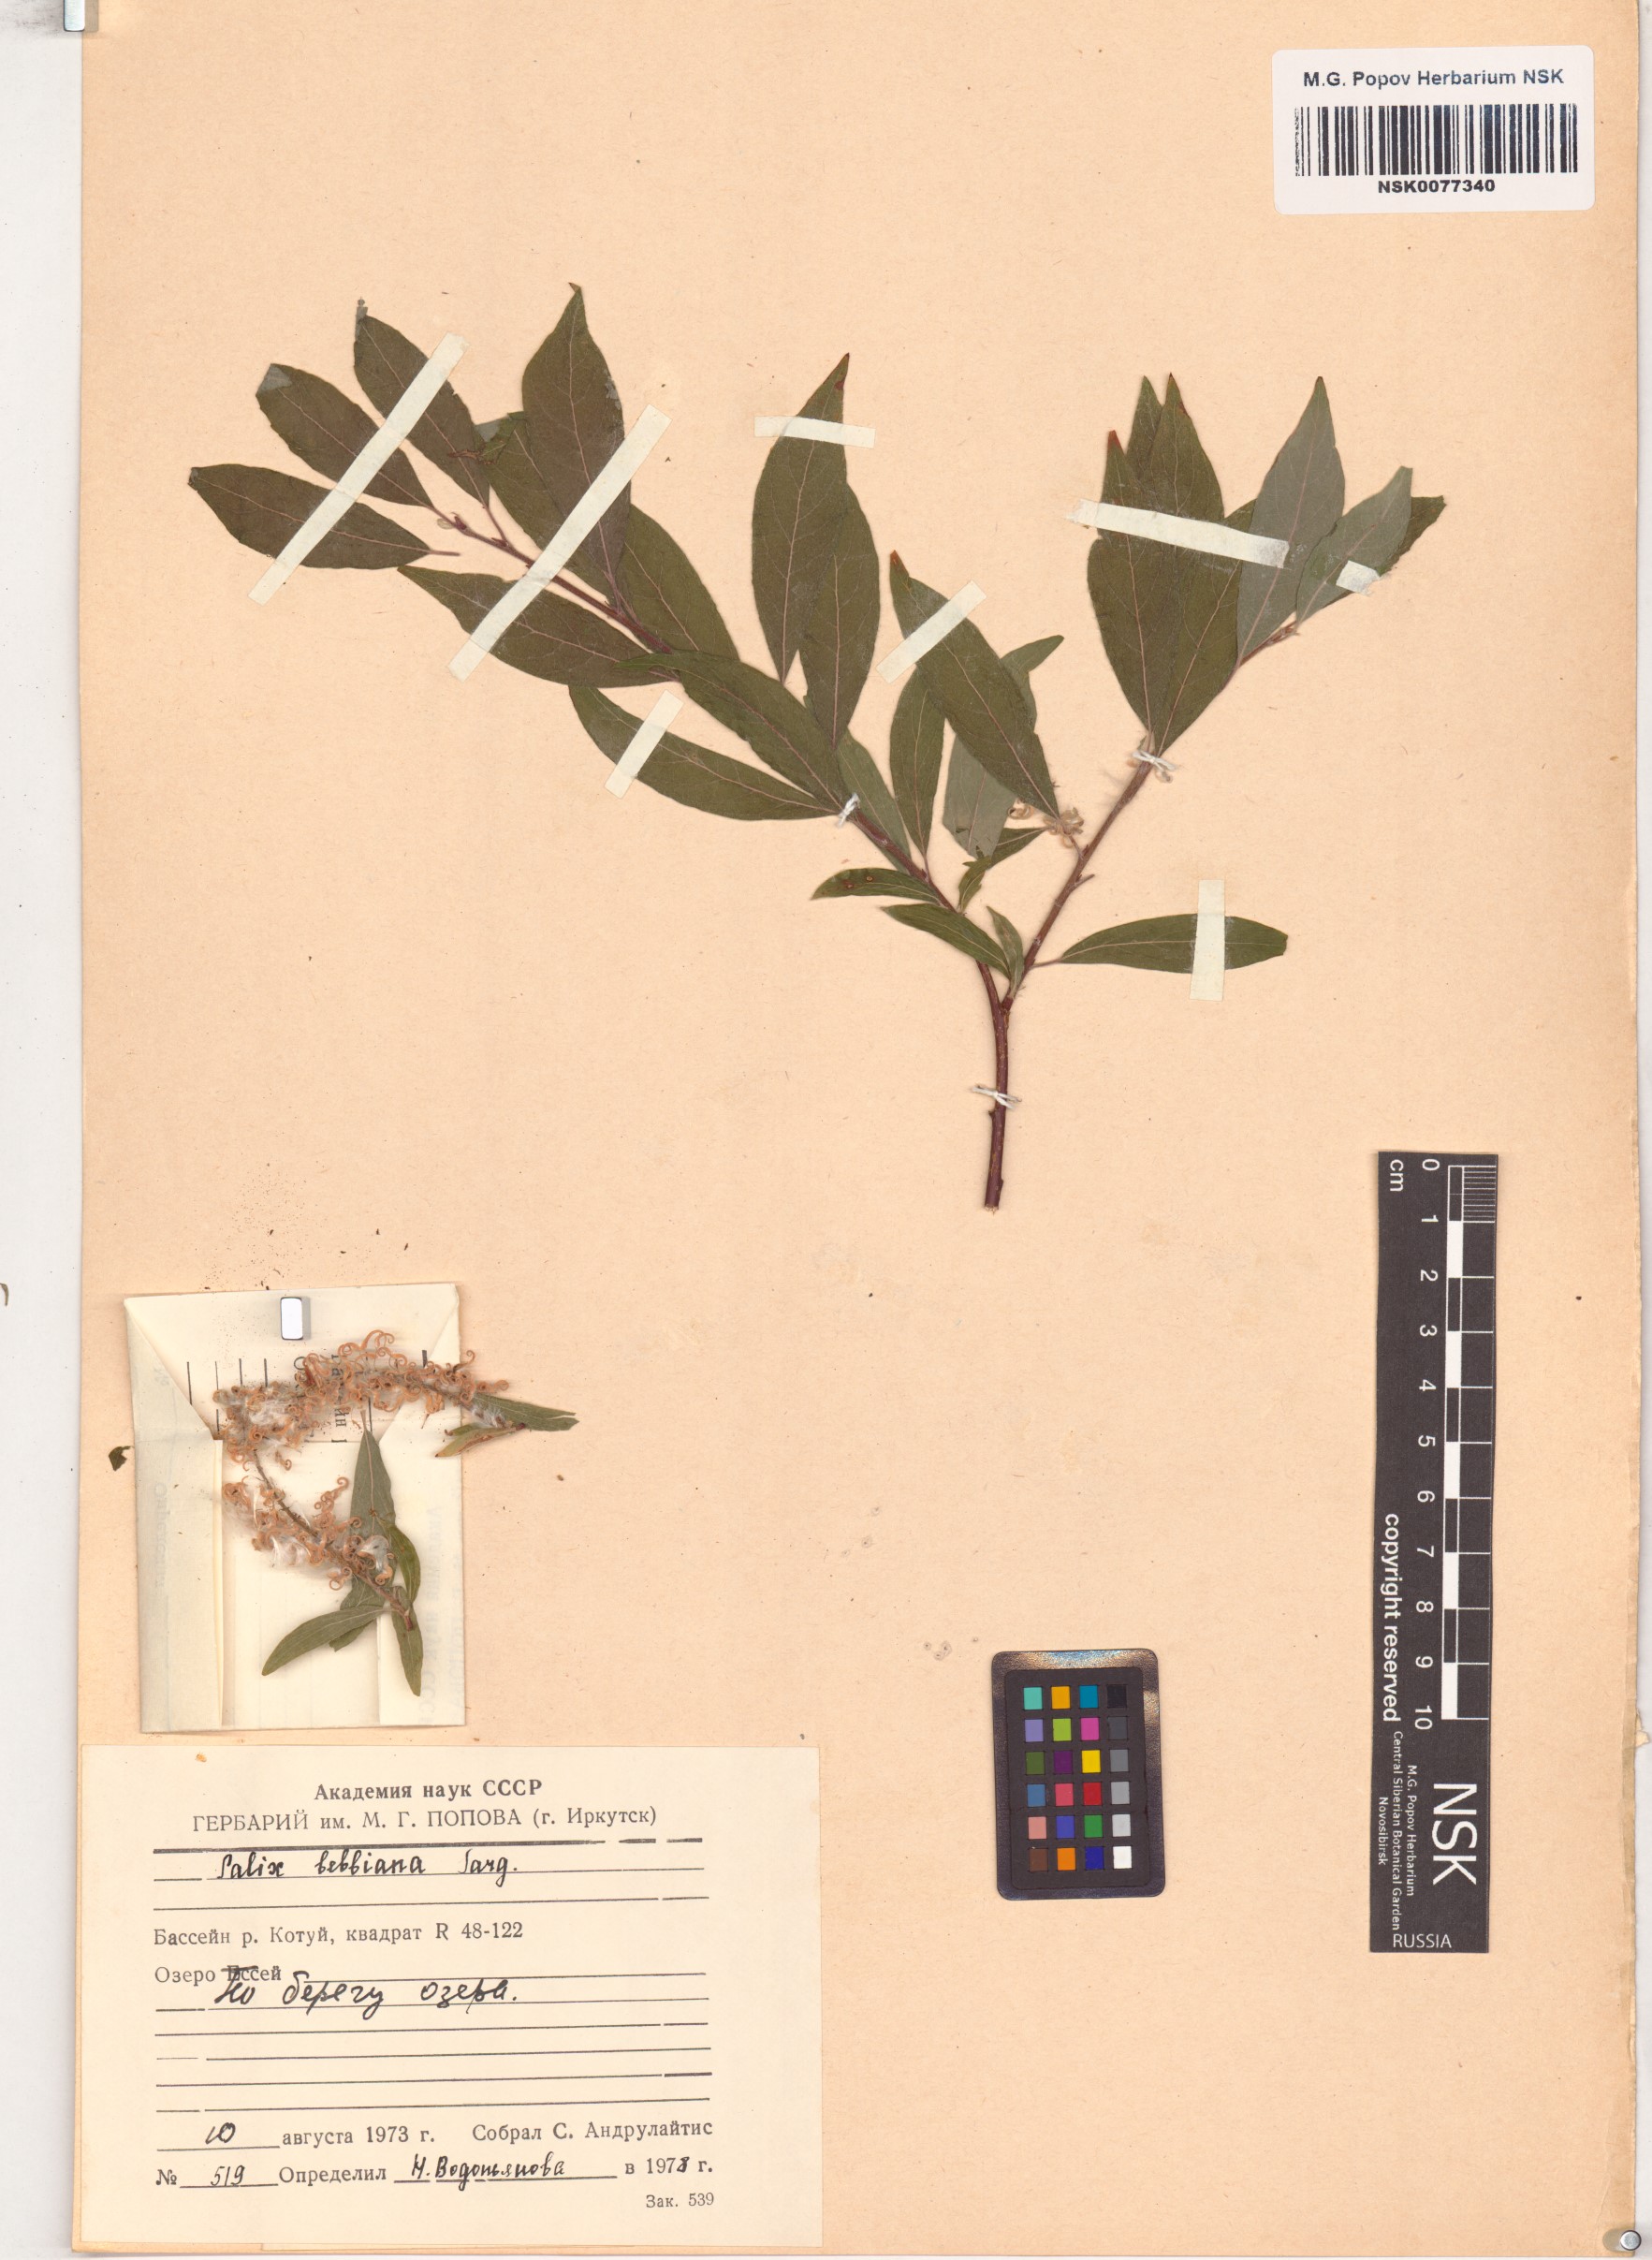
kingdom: Plantae
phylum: Tracheophyta
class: Magnoliopsida
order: Malpighiales
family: Salicaceae
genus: Salix
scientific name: Salix bebbiana
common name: Bebb's willow
